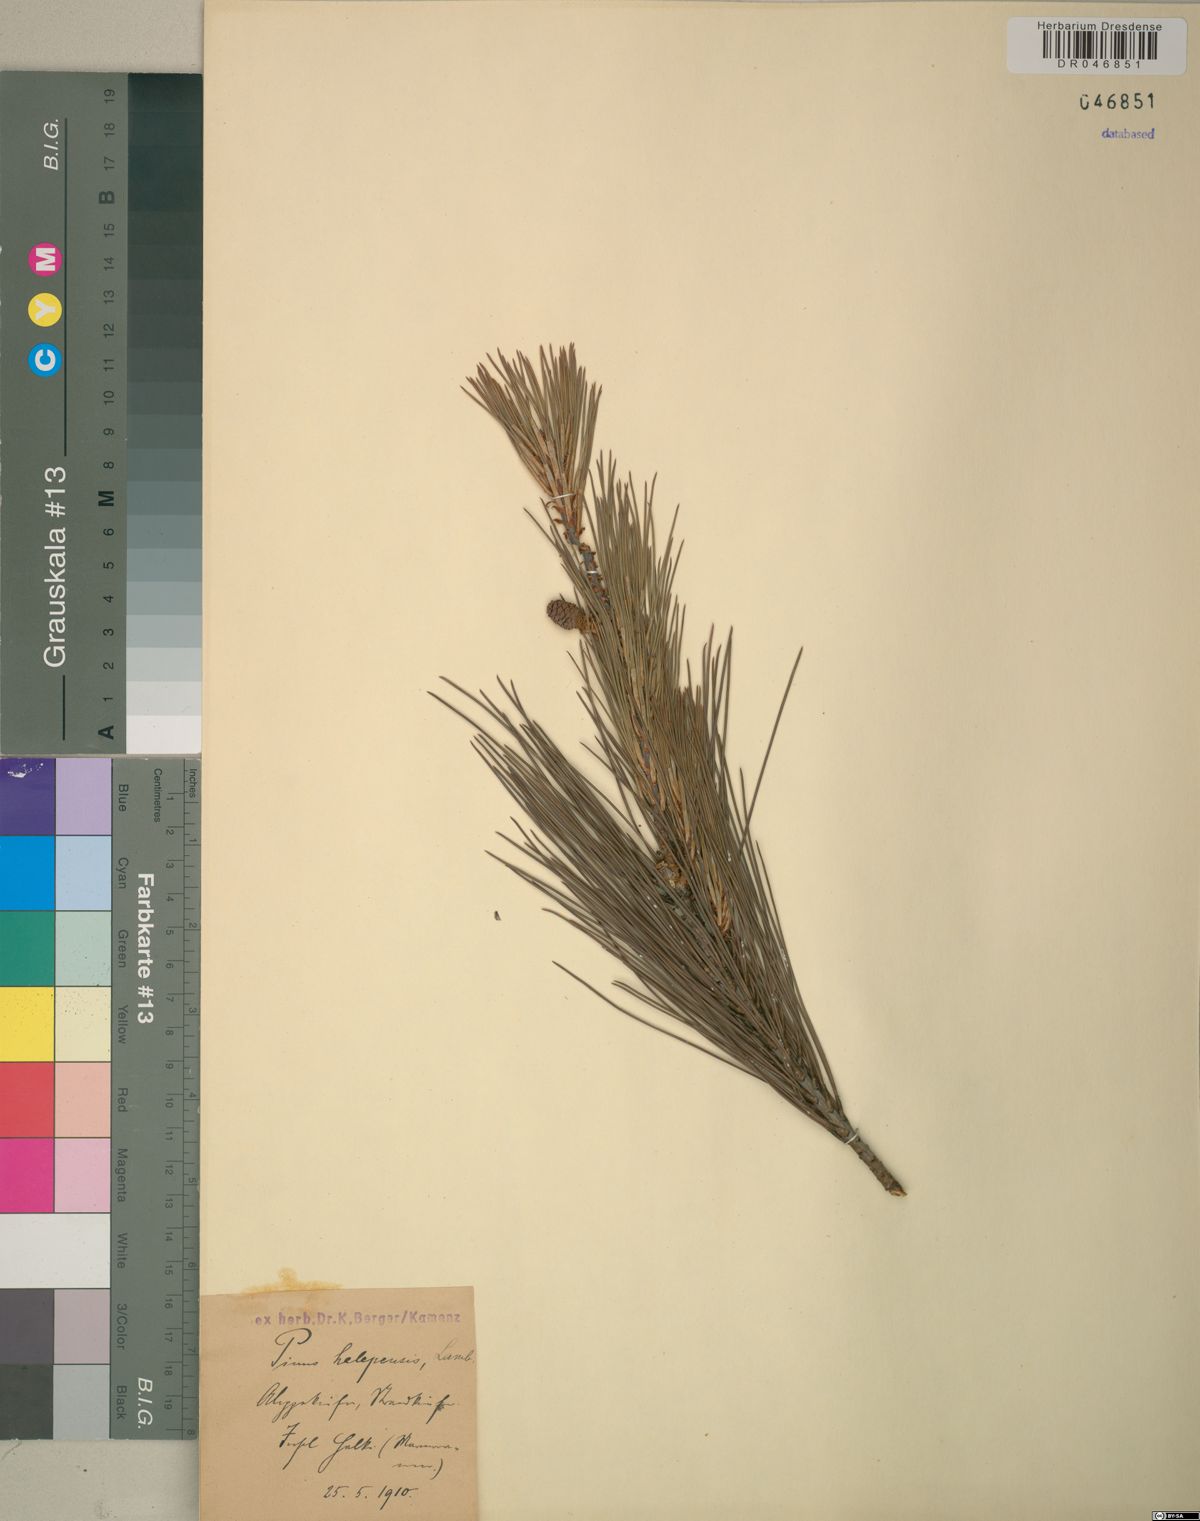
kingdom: Plantae
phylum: Tracheophyta
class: Pinopsida
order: Pinales
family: Pinaceae
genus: Pinus
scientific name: Pinus halepensis
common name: Aleppo pine
